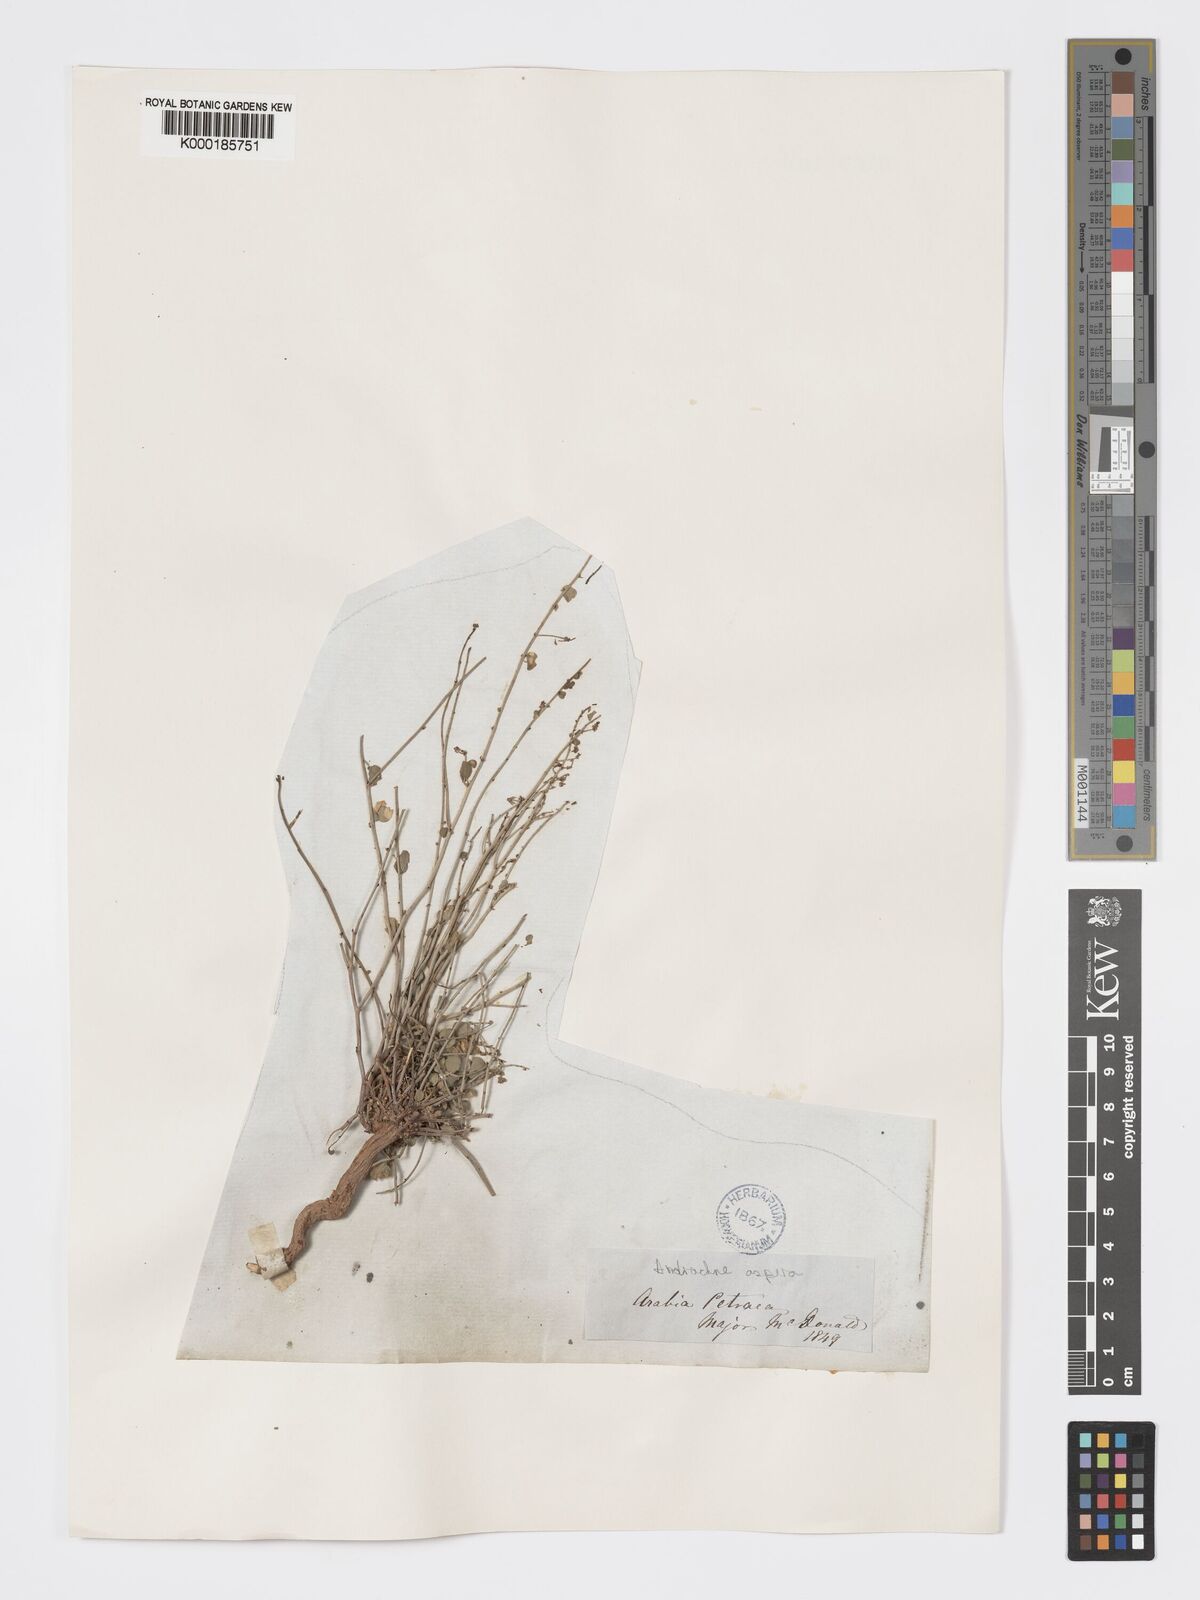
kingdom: Plantae
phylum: Tracheophyta
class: Magnoliopsida
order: Malpighiales
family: Phyllanthaceae
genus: Andrachne
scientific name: Andrachne aspera
